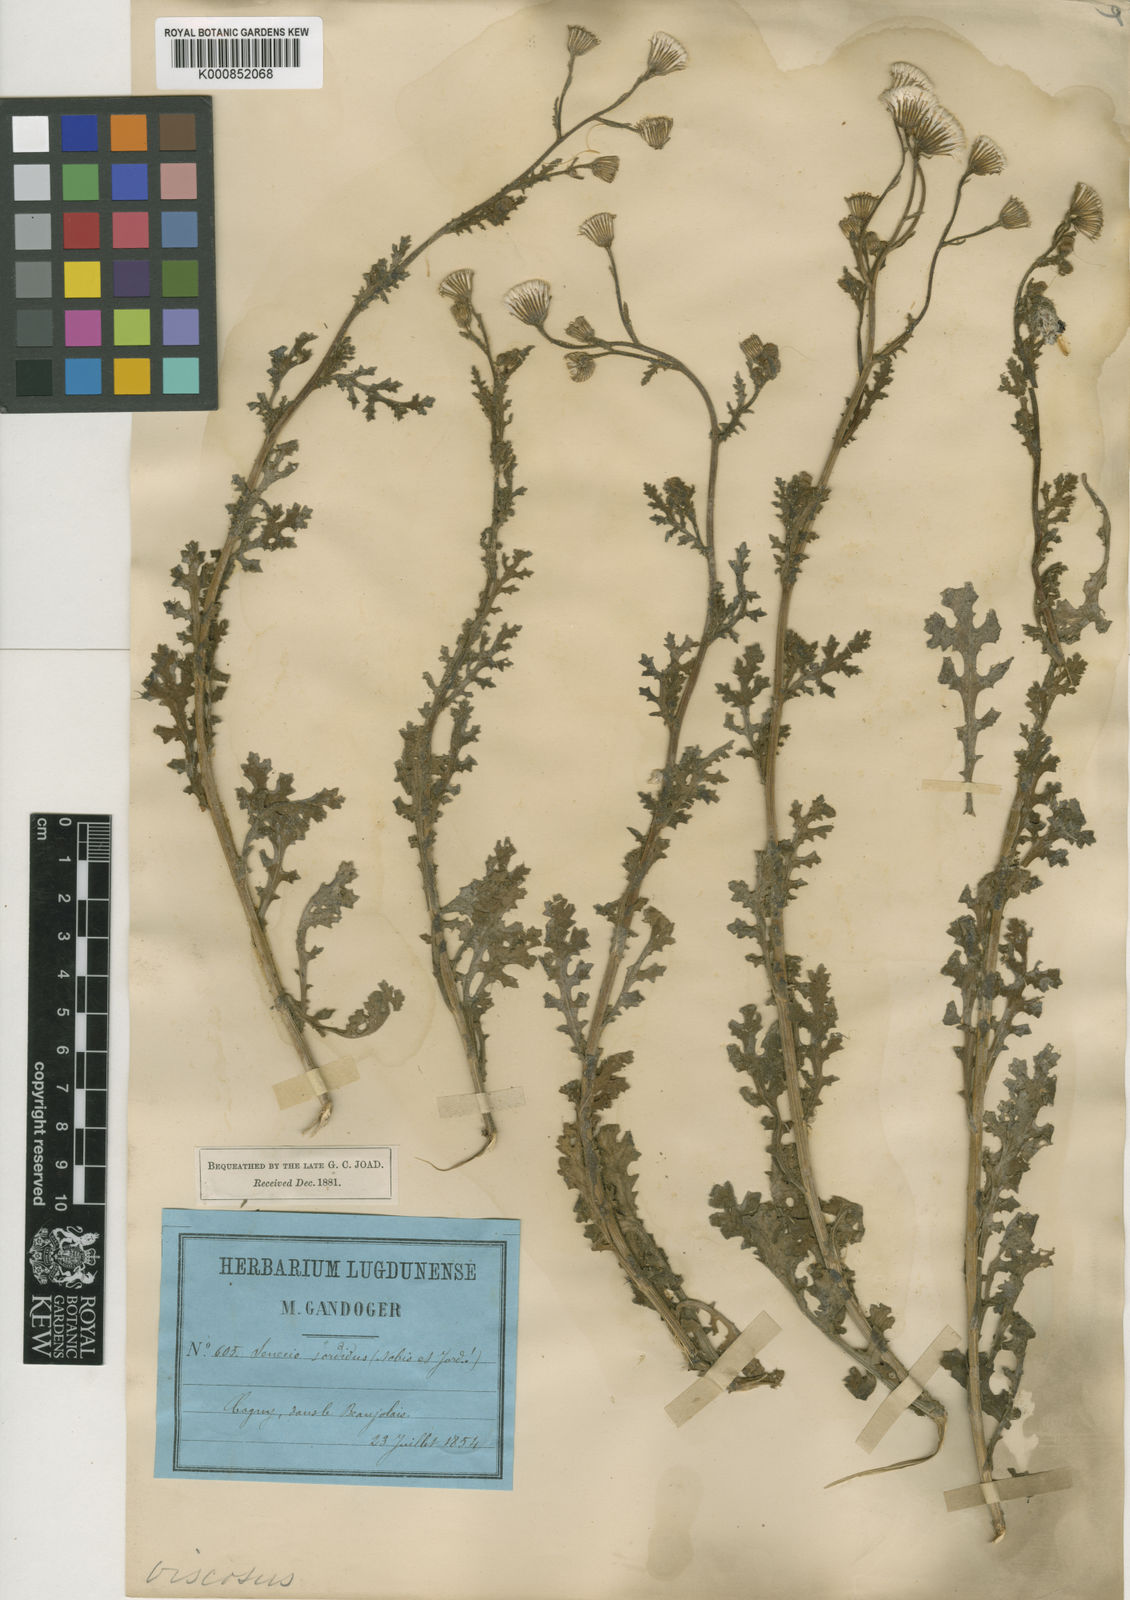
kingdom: Plantae
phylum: Tracheophyta
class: Magnoliopsida
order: Asterales
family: Asteraceae
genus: Senecio
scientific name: Senecio viscosus
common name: Sticky groundsel
